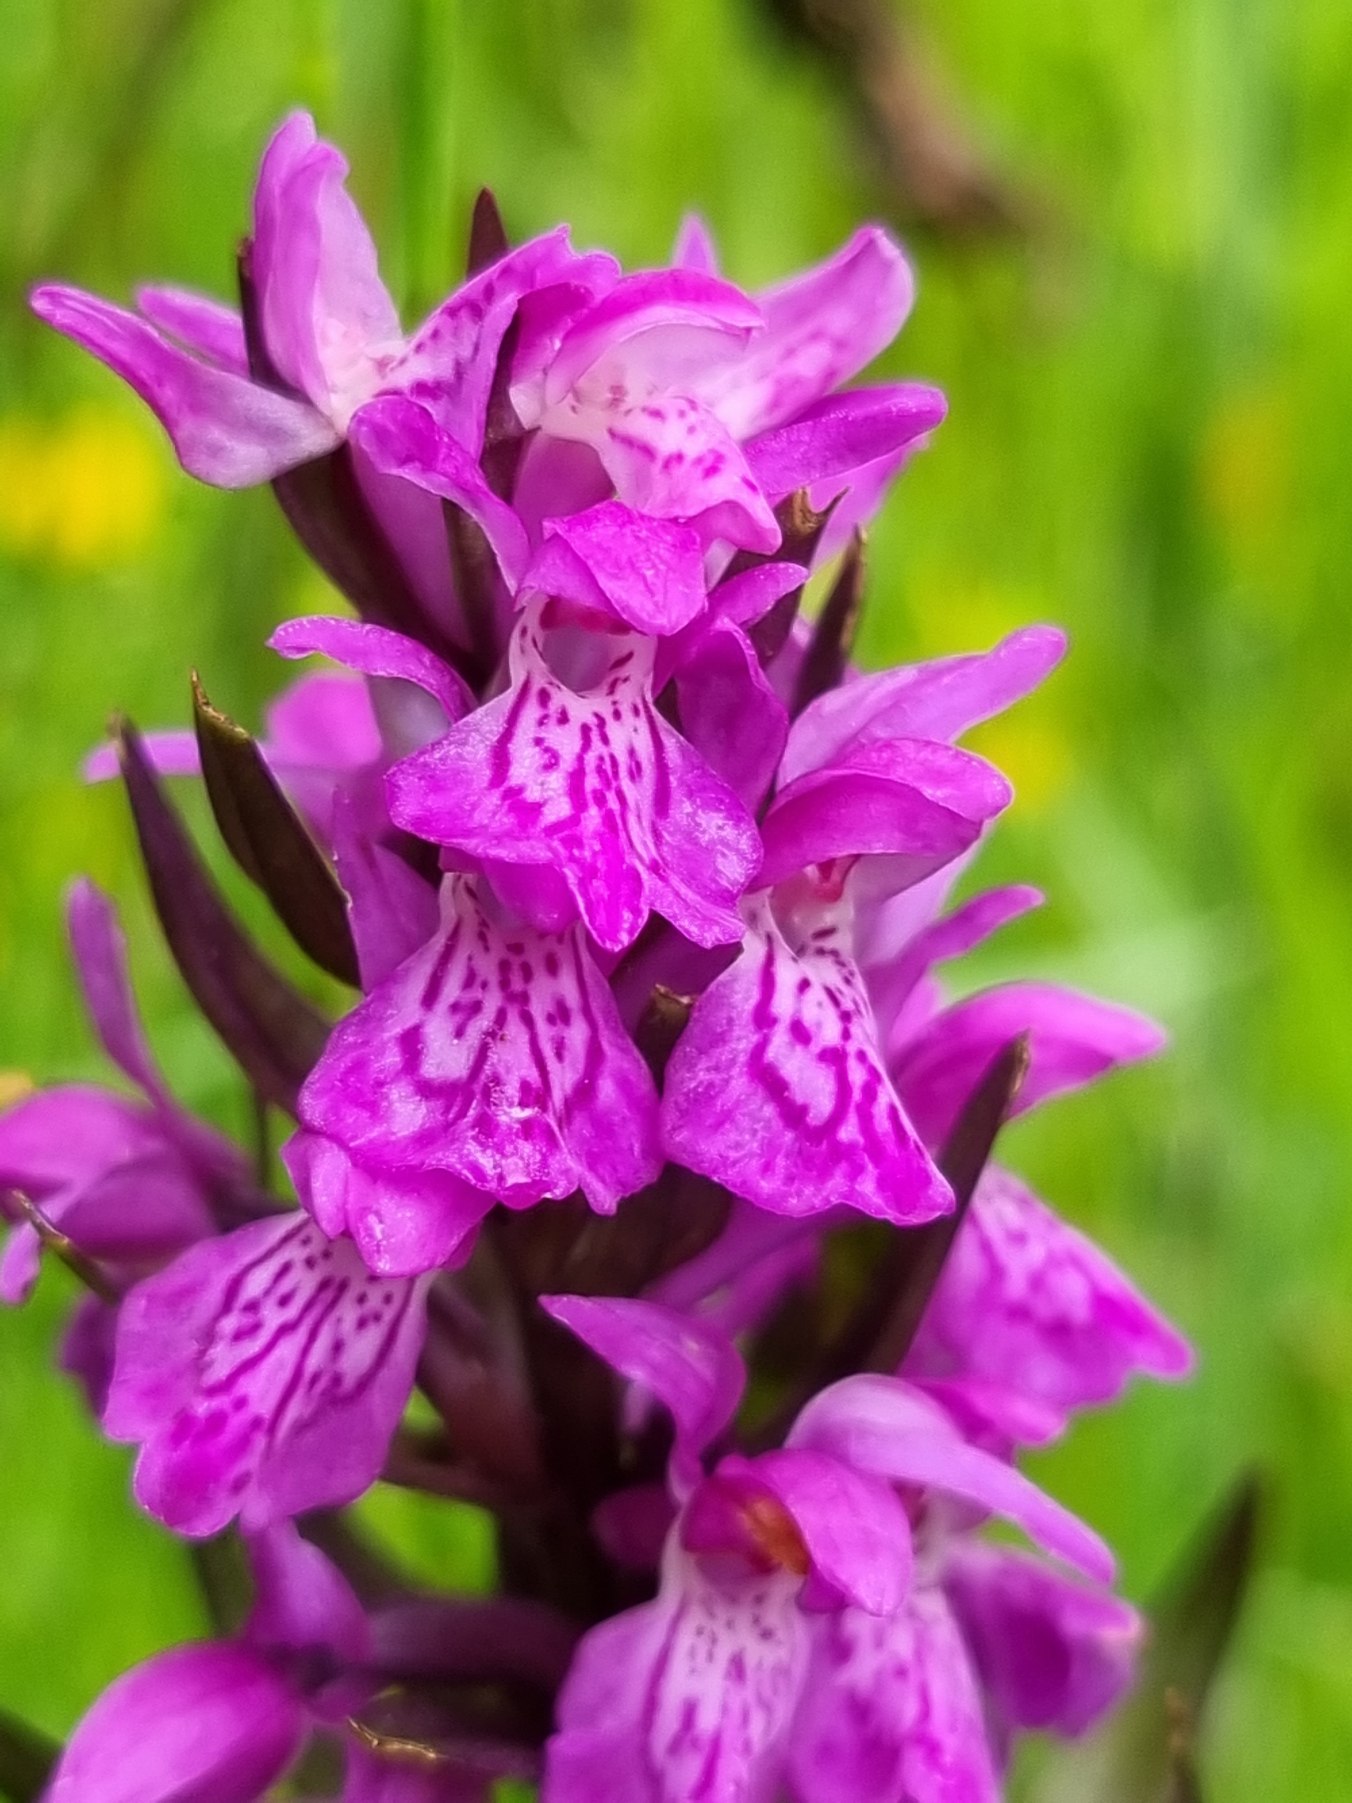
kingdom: Plantae
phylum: Tracheophyta
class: Liliopsida
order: Asparagales
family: Orchidaceae
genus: Dactylorhiza
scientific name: Dactylorhiza majalis
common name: Maj-gøgeurt
